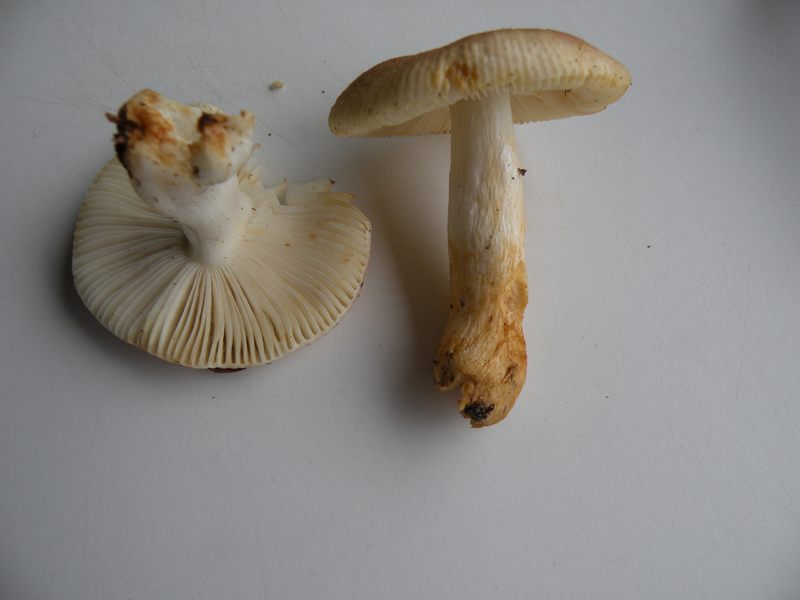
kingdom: Fungi
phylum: Basidiomycota
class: Agaricomycetes
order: Russulales
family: Russulaceae
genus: Russula
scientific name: Russula puellaris
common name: gulstokket skørhat
